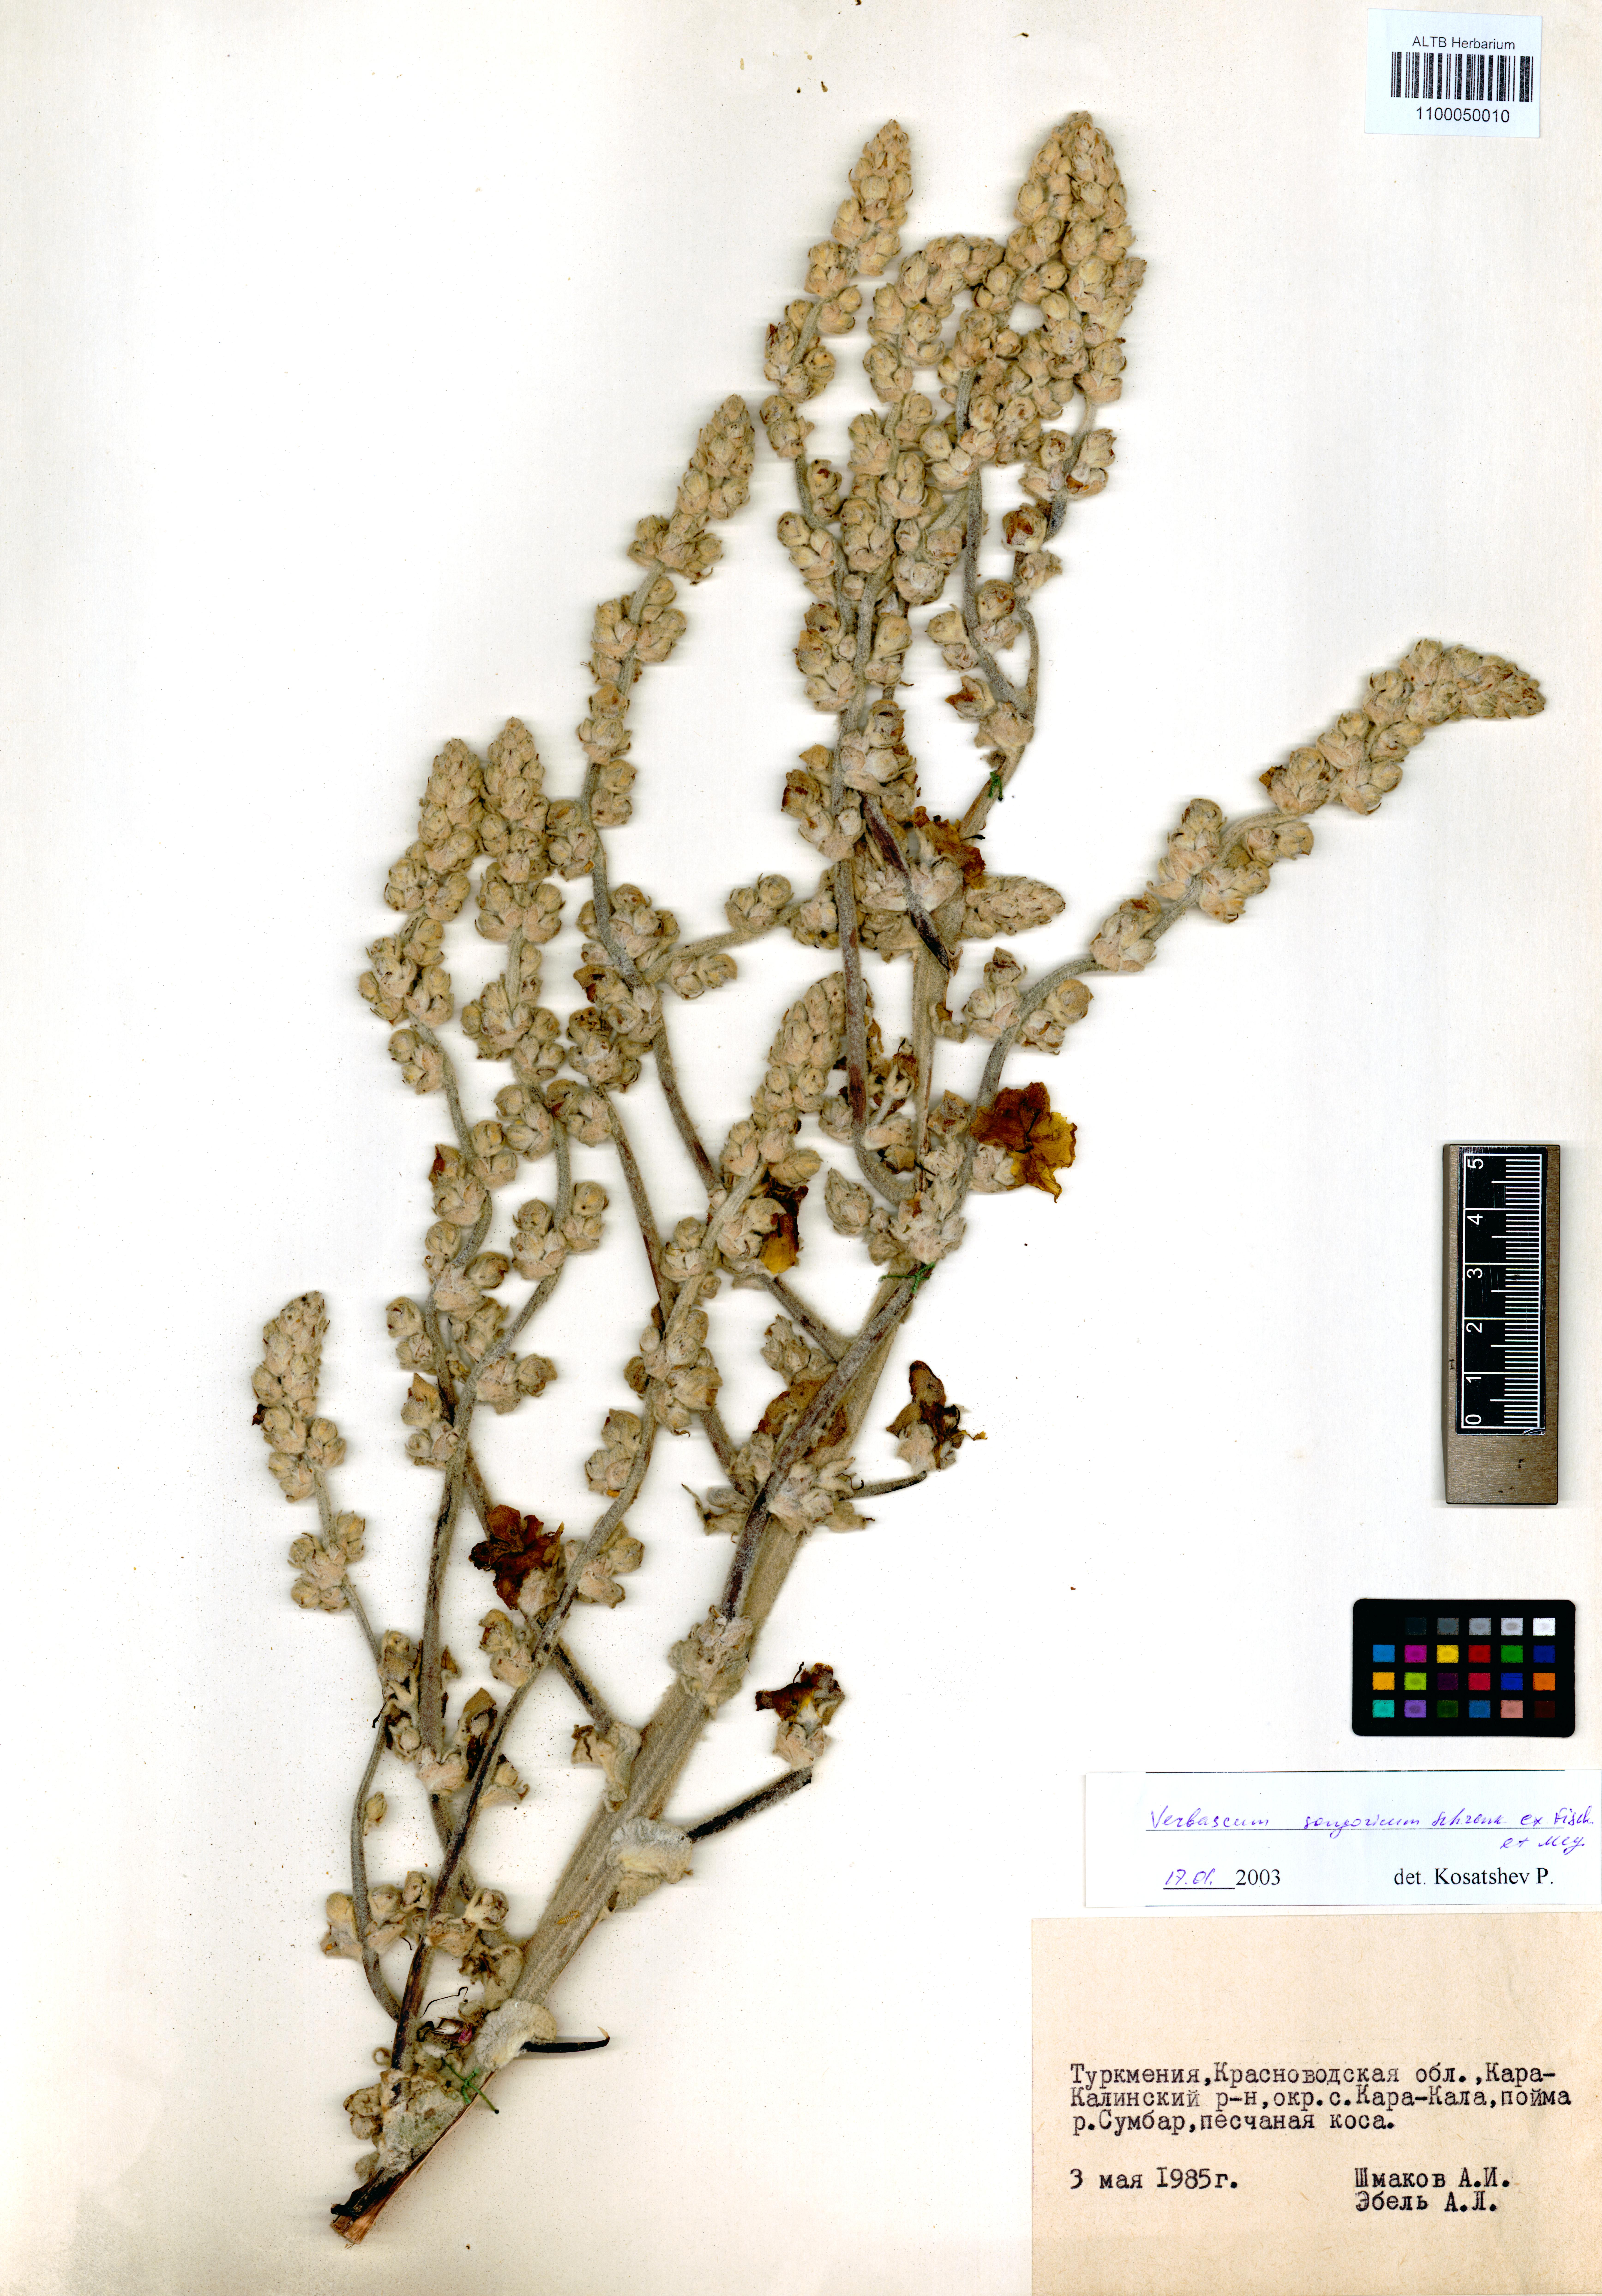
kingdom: Plantae
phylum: Tracheophyta
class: Magnoliopsida
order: Lamiales
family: Scrophulariaceae
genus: Verbascum
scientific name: Verbascum songaricum
